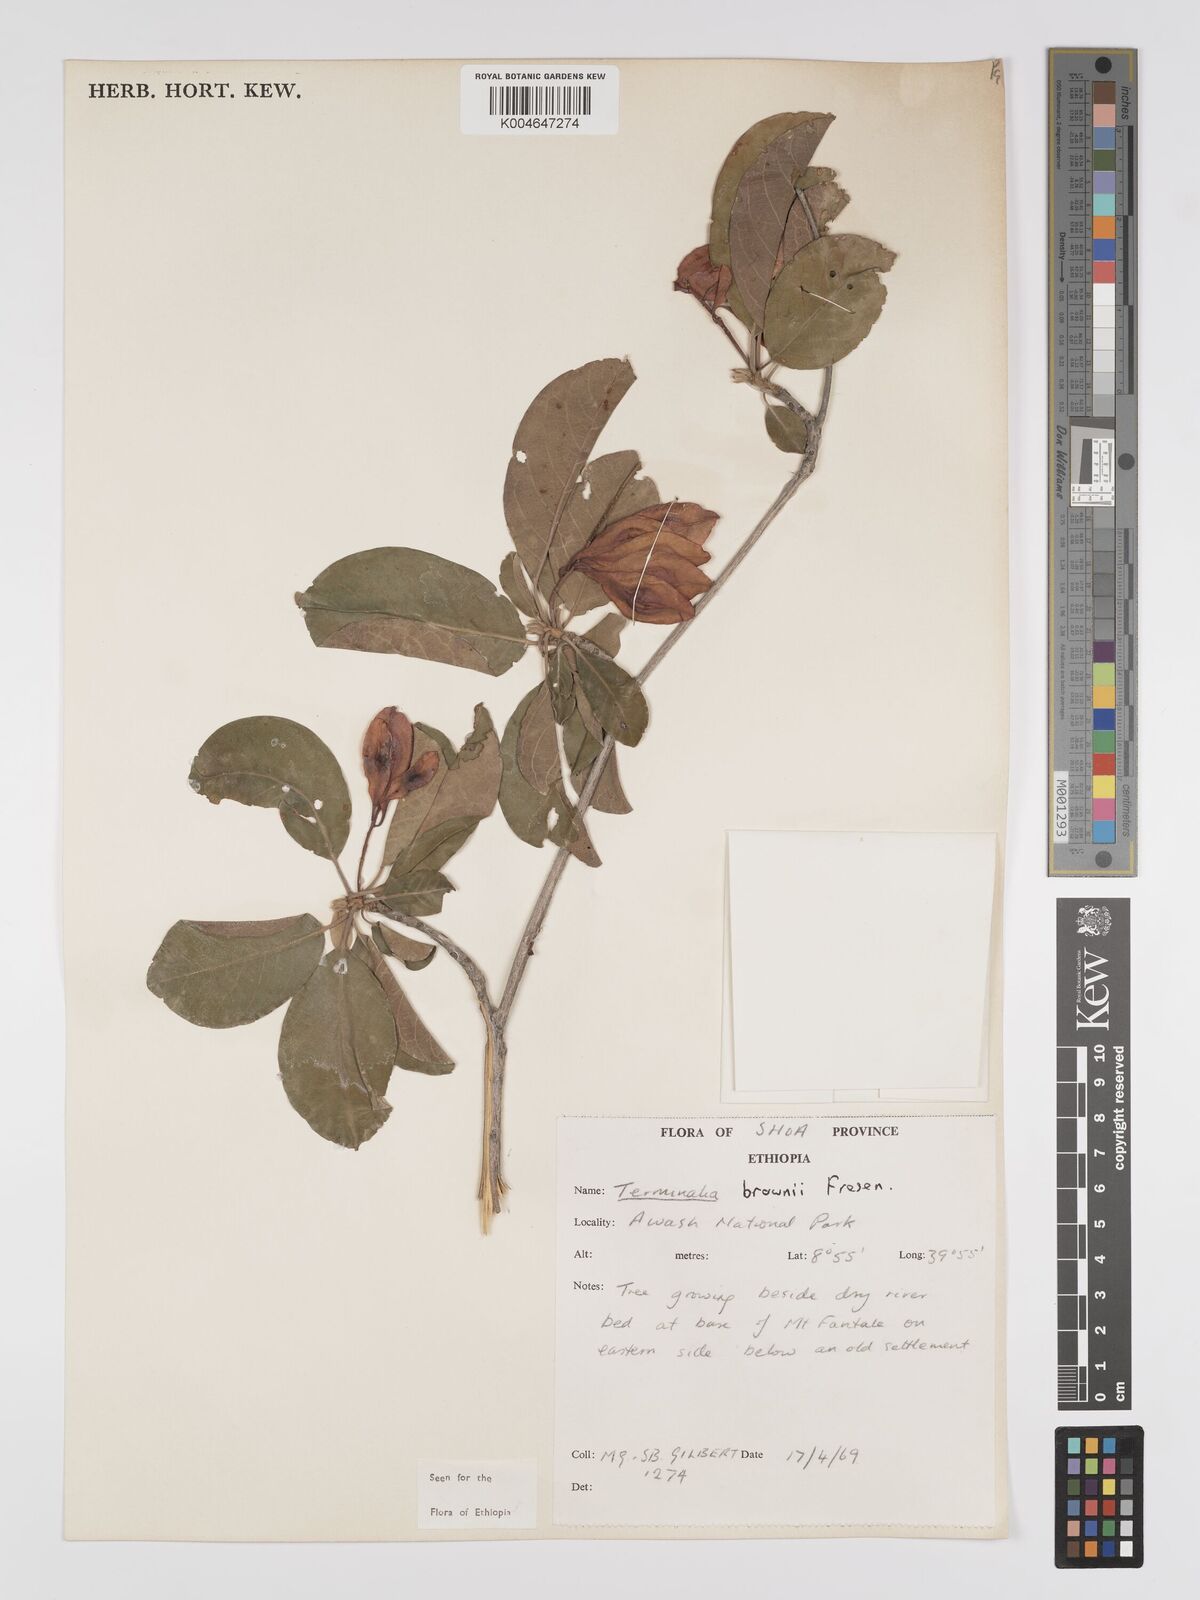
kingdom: Plantae
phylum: Tracheophyta
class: Magnoliopsida
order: Myrtales
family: Combretaceae
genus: Terminalia
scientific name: Terminalia brownii
